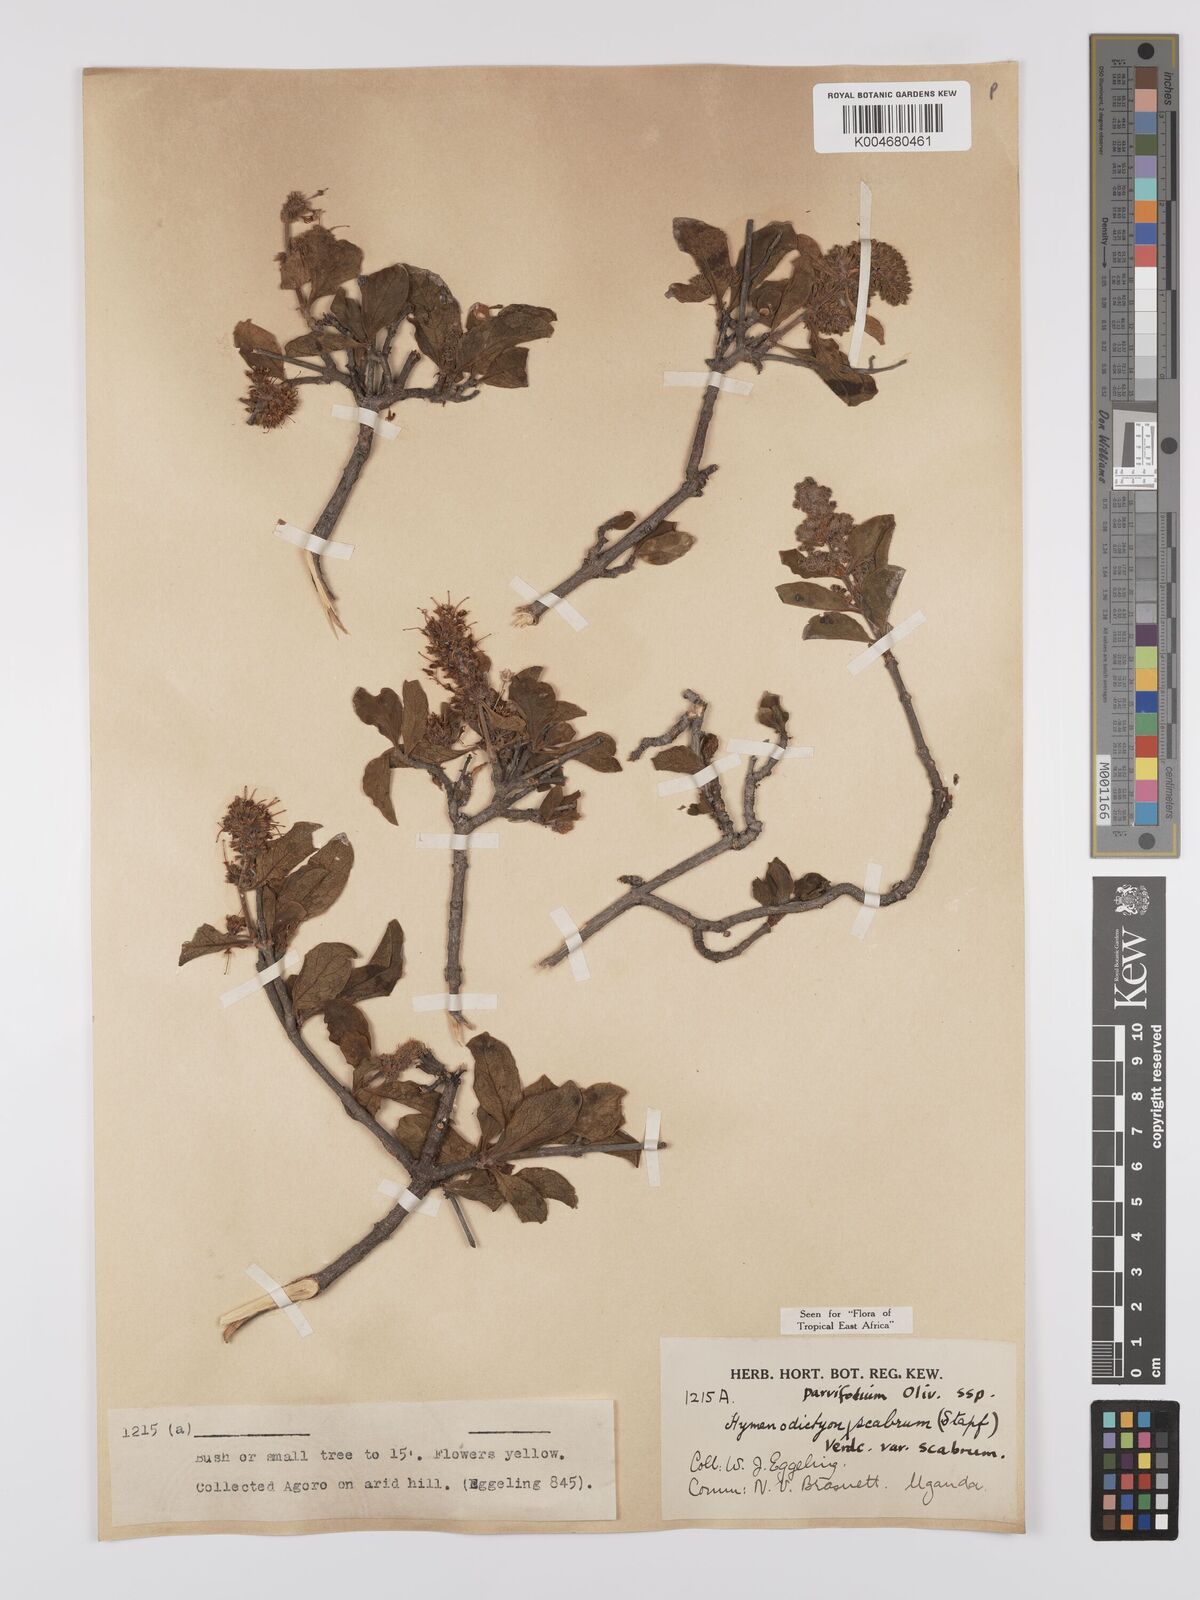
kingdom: Plantae
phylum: Tracheophyta
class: Magnoliopsida
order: Gentianales
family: Rubiaceae
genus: Hymenodictyon
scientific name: Hymenodictyon scabrum
